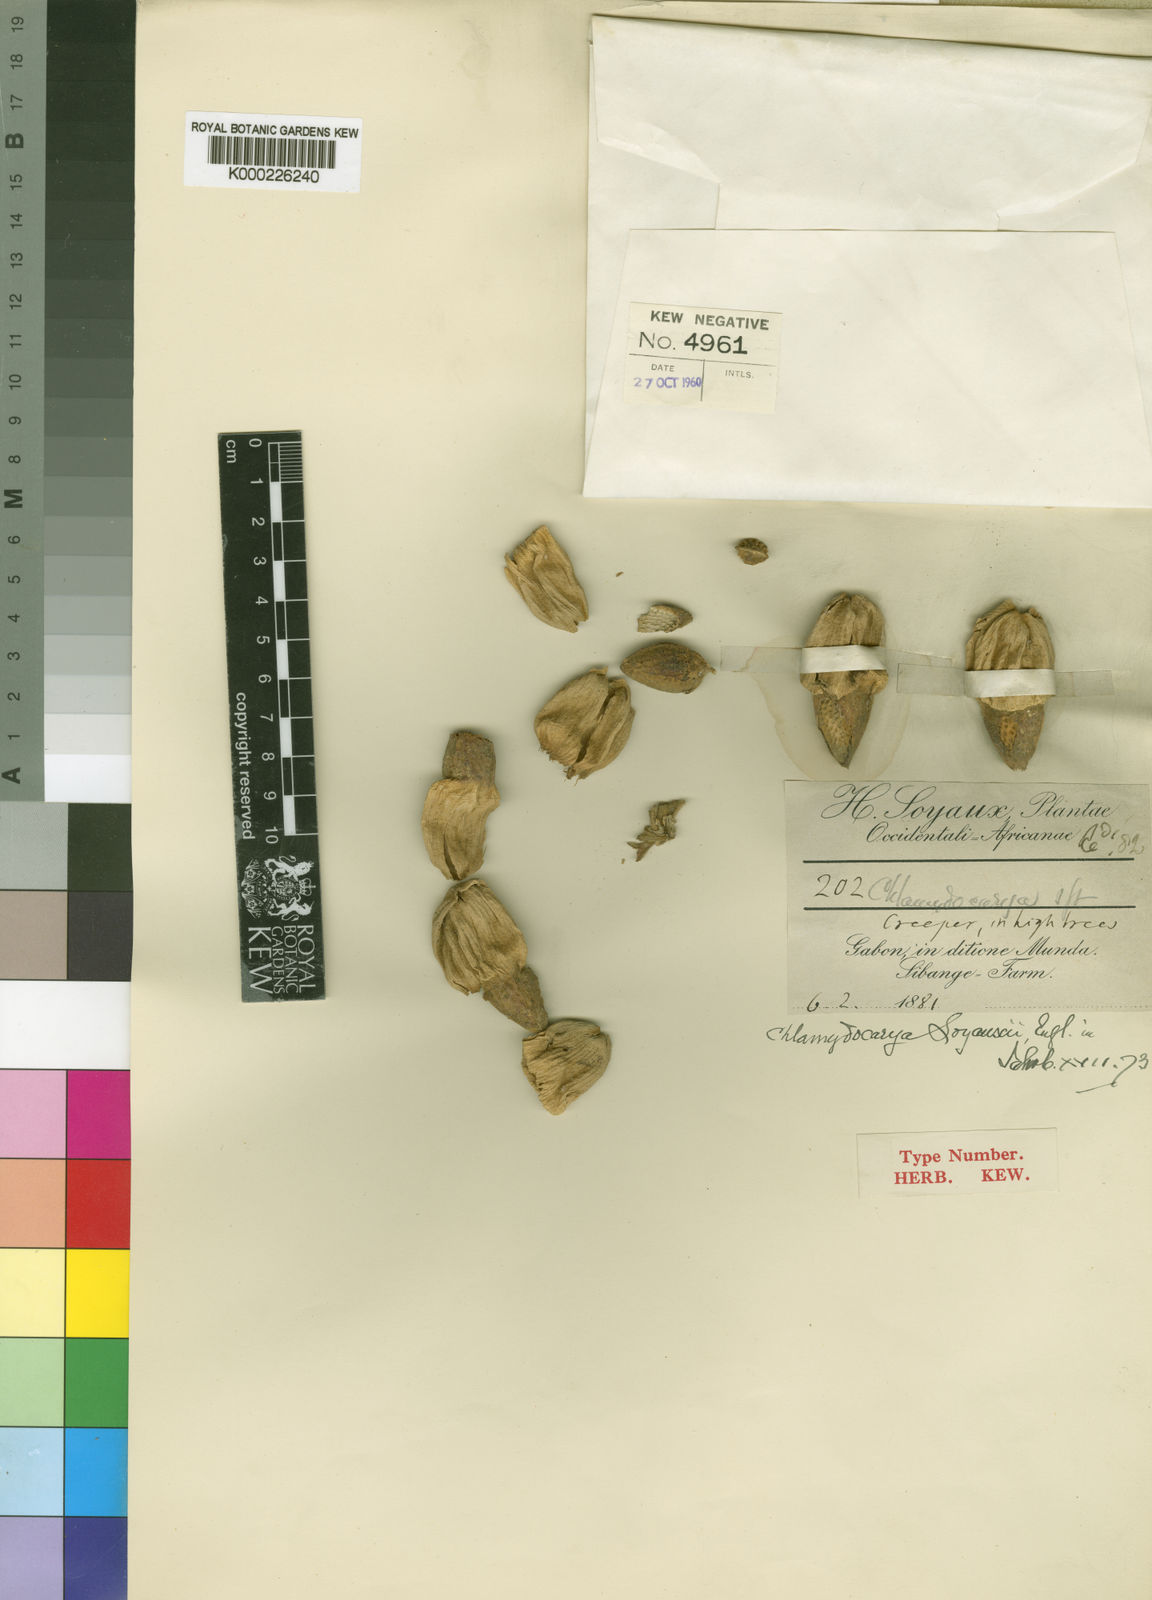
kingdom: Plantae
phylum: Tracheophyta
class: Magnoliopsida
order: Icacinales
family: Icacinaceae
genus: Pyrenacantha
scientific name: Pyrenacantha soyauxii
